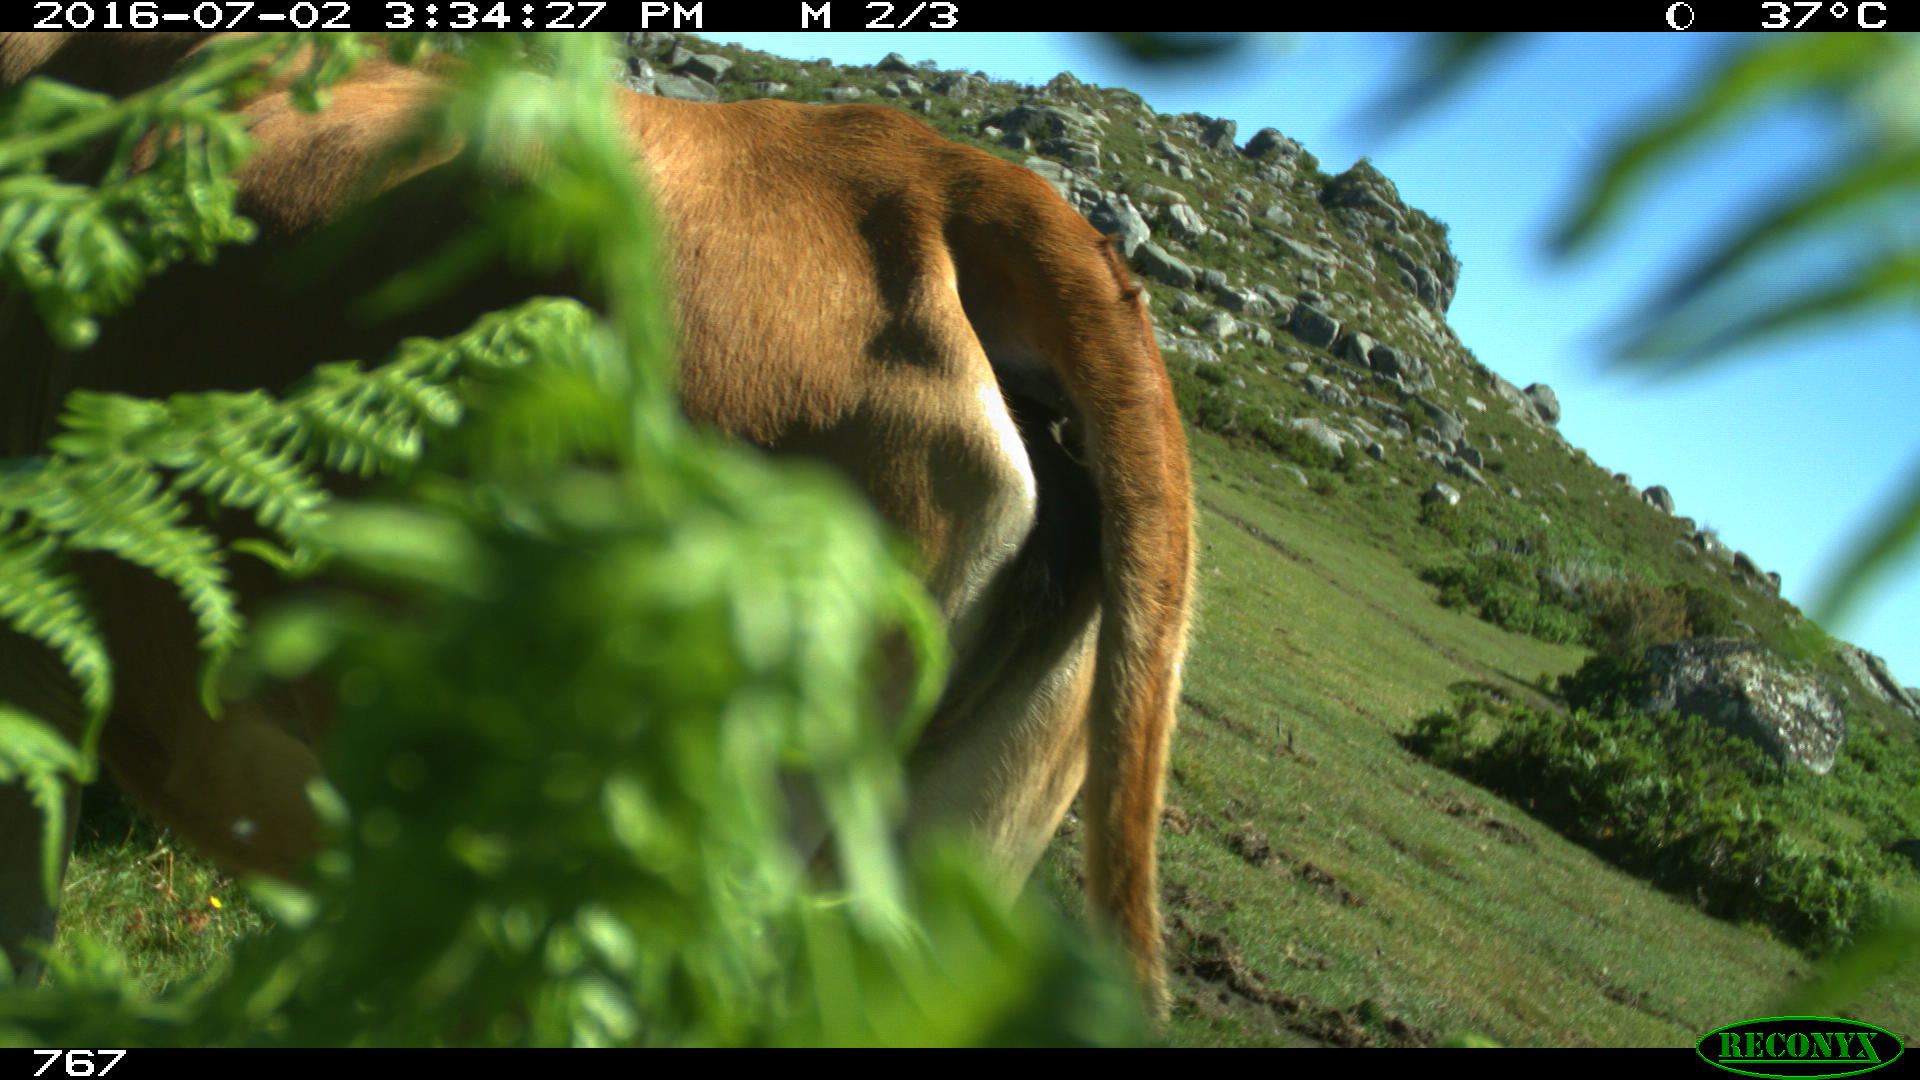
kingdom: Animalia
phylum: Chordata
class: Mammalia
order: Artiodactyla
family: Bovidae
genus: Bos
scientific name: Bos taurus
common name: Domesticated cattle
